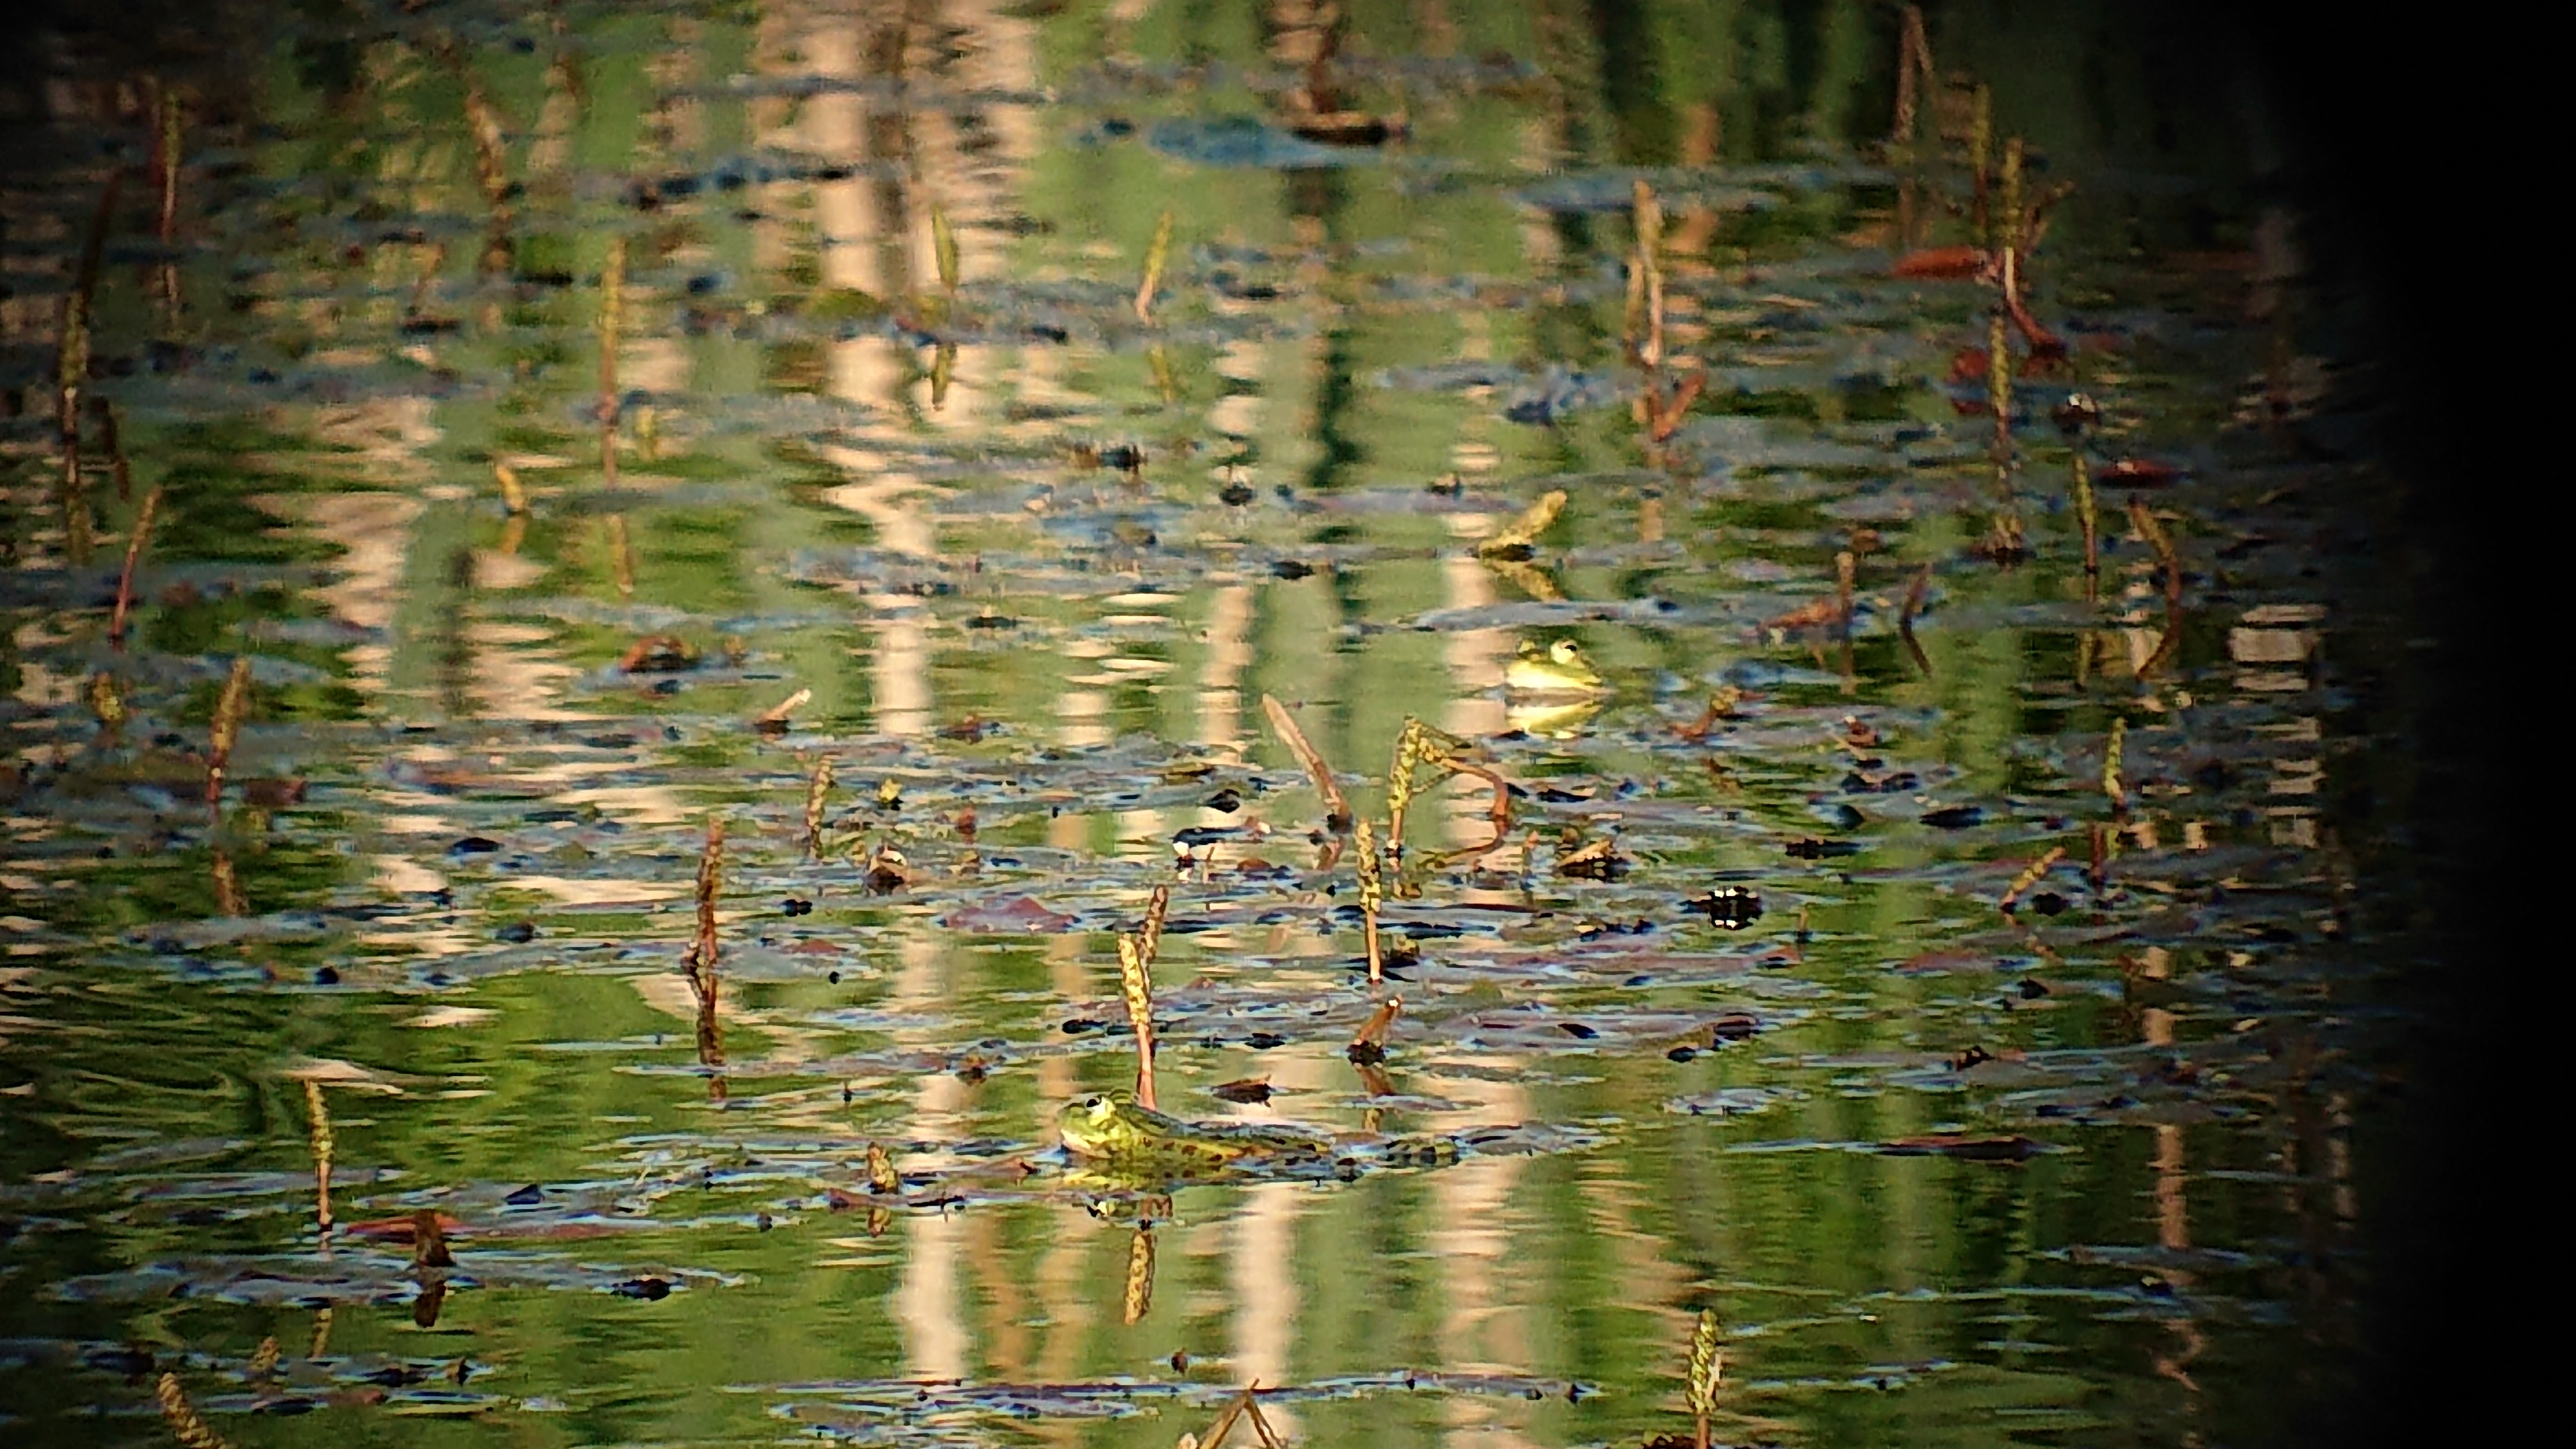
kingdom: Animalia
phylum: Chordata
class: Amphibia
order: Anura
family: Ranidae
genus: Pelophylax
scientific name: Pelophylax lessonae
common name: Pool frog
